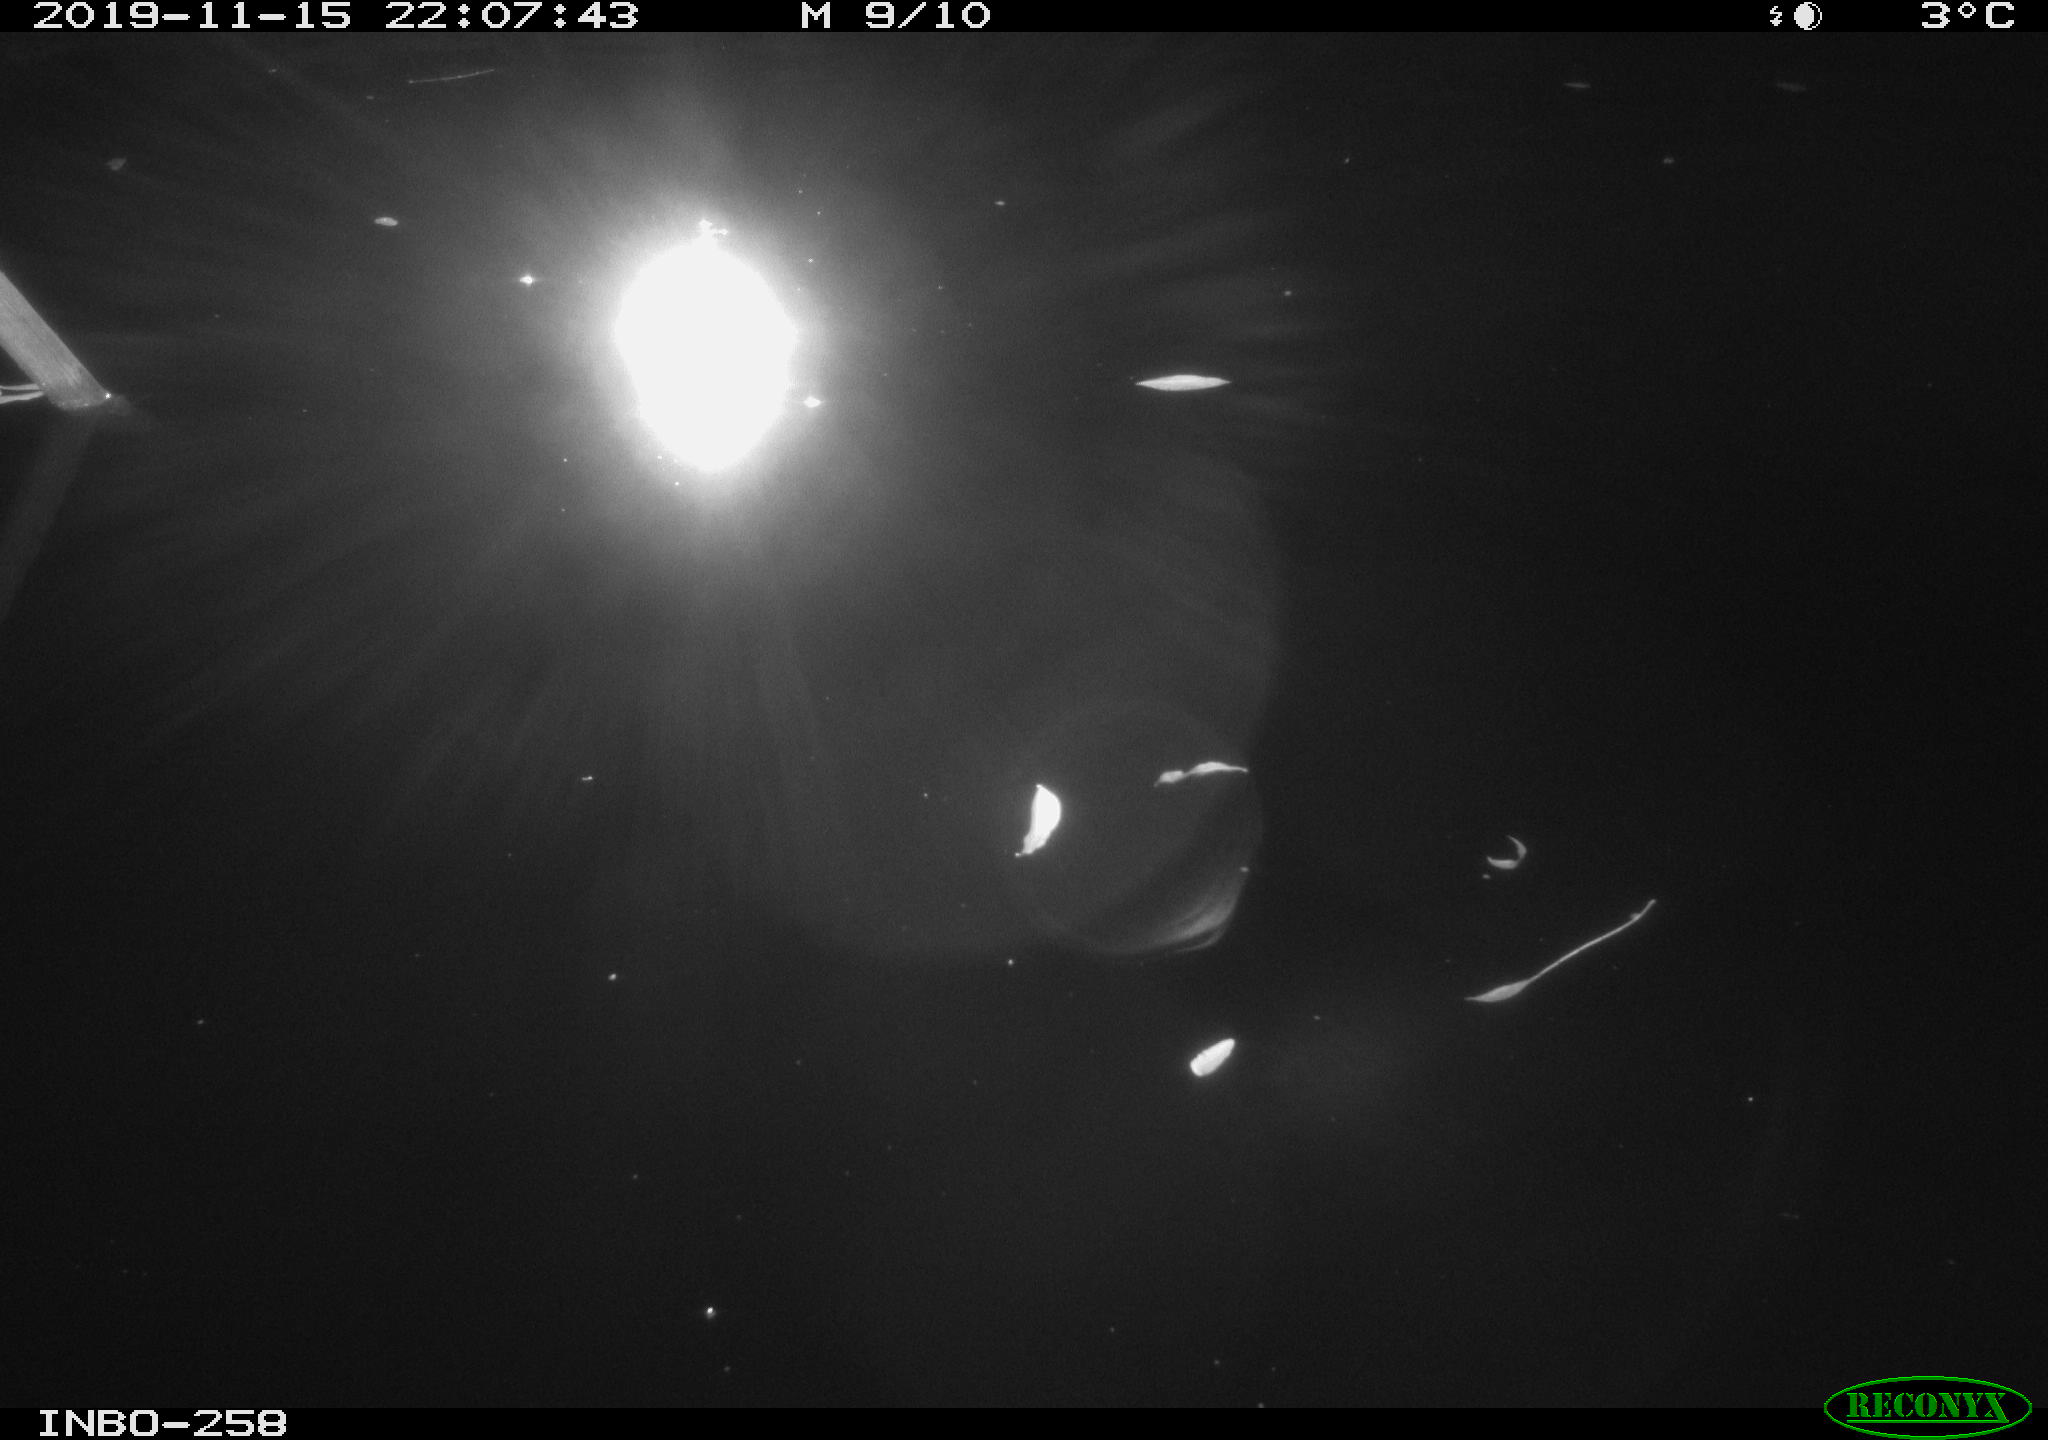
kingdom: Animalia
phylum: Chordata
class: Aves
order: Anseriformes
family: Anatidae
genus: Anas
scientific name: Anas platyrhynchos
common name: Mallard
